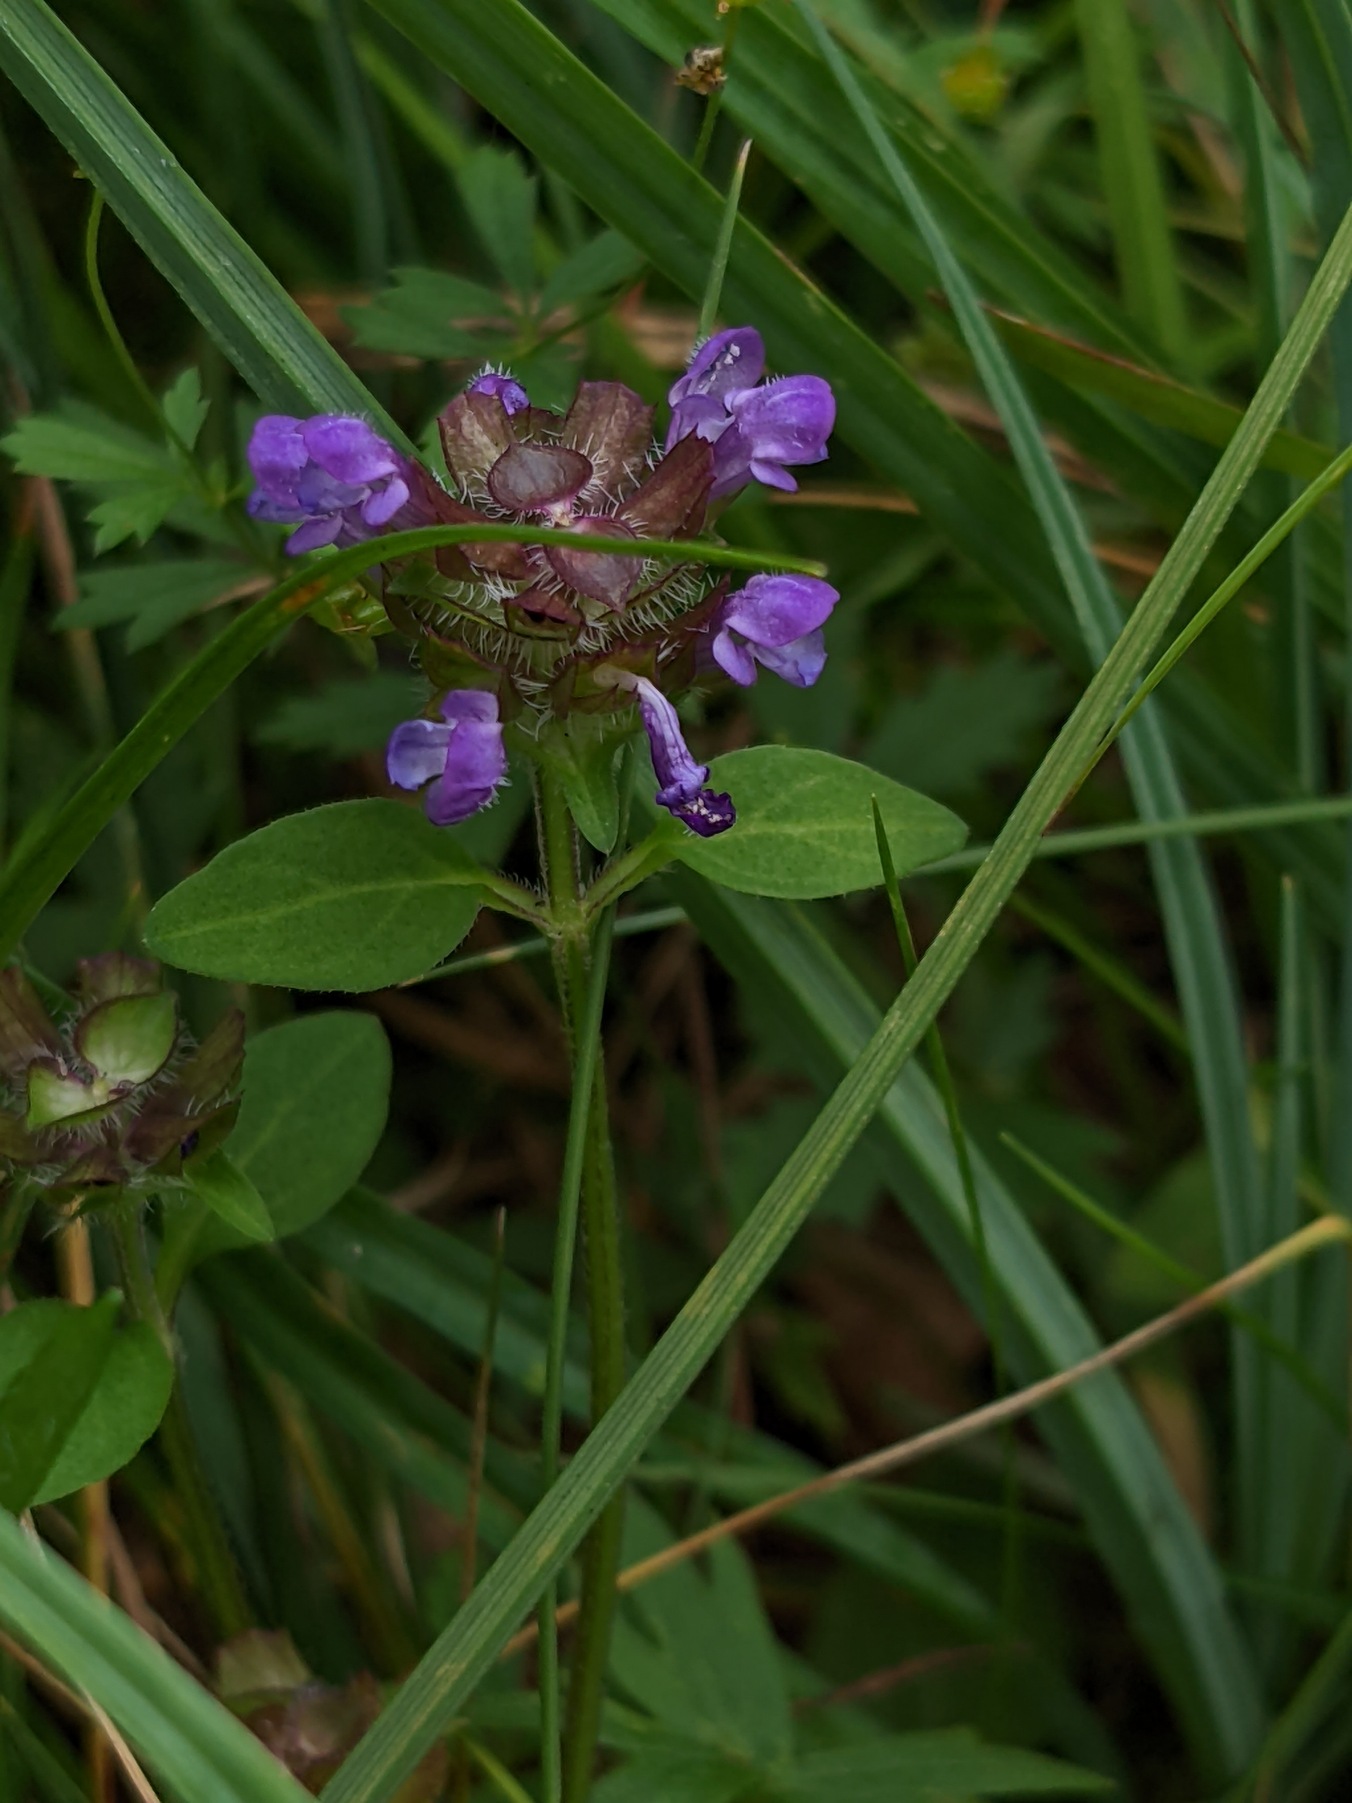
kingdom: Plantae
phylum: Tracheophyta
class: Magnoliopsida
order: Lamiales
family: Lamiaceae
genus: Prunella
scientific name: Prunella vulgaris
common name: Almindelig brunelle
